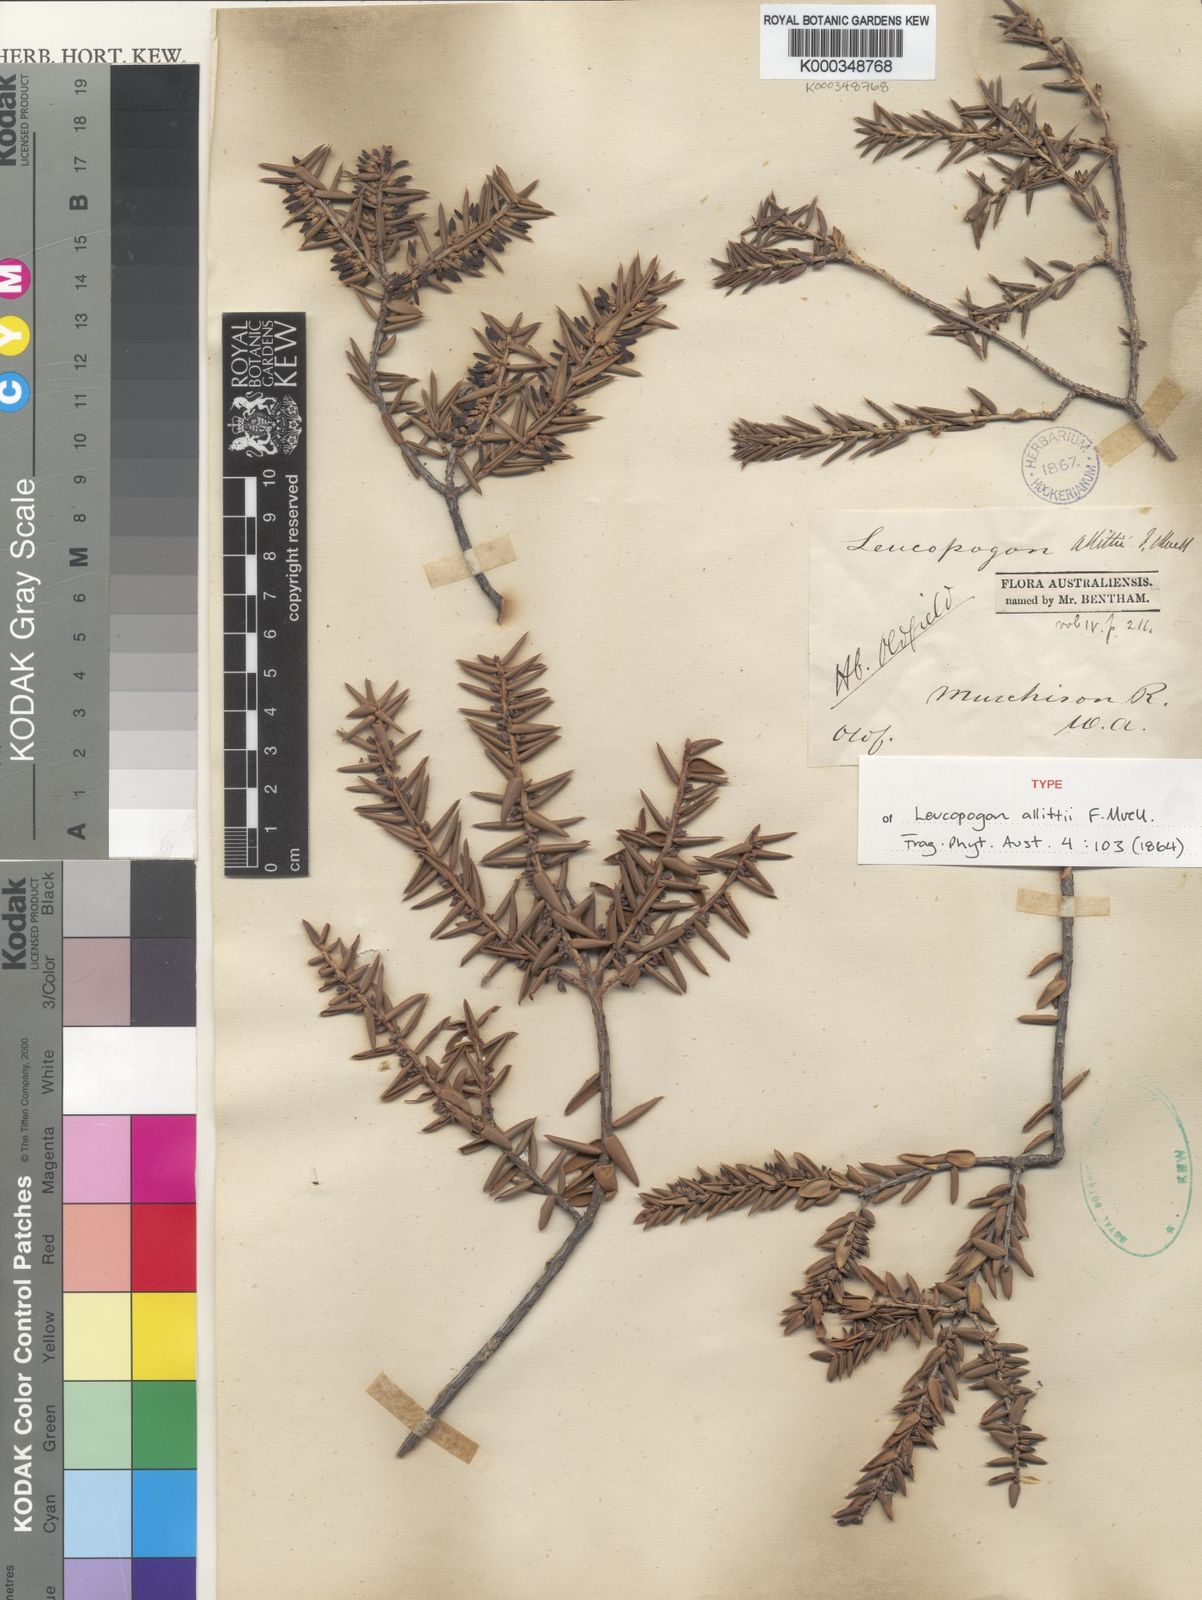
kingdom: Plantae
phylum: Tracheophyta
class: Magnoliopsida
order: Ericales
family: Ericaceae
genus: Styphelia
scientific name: Styphelia allittii
